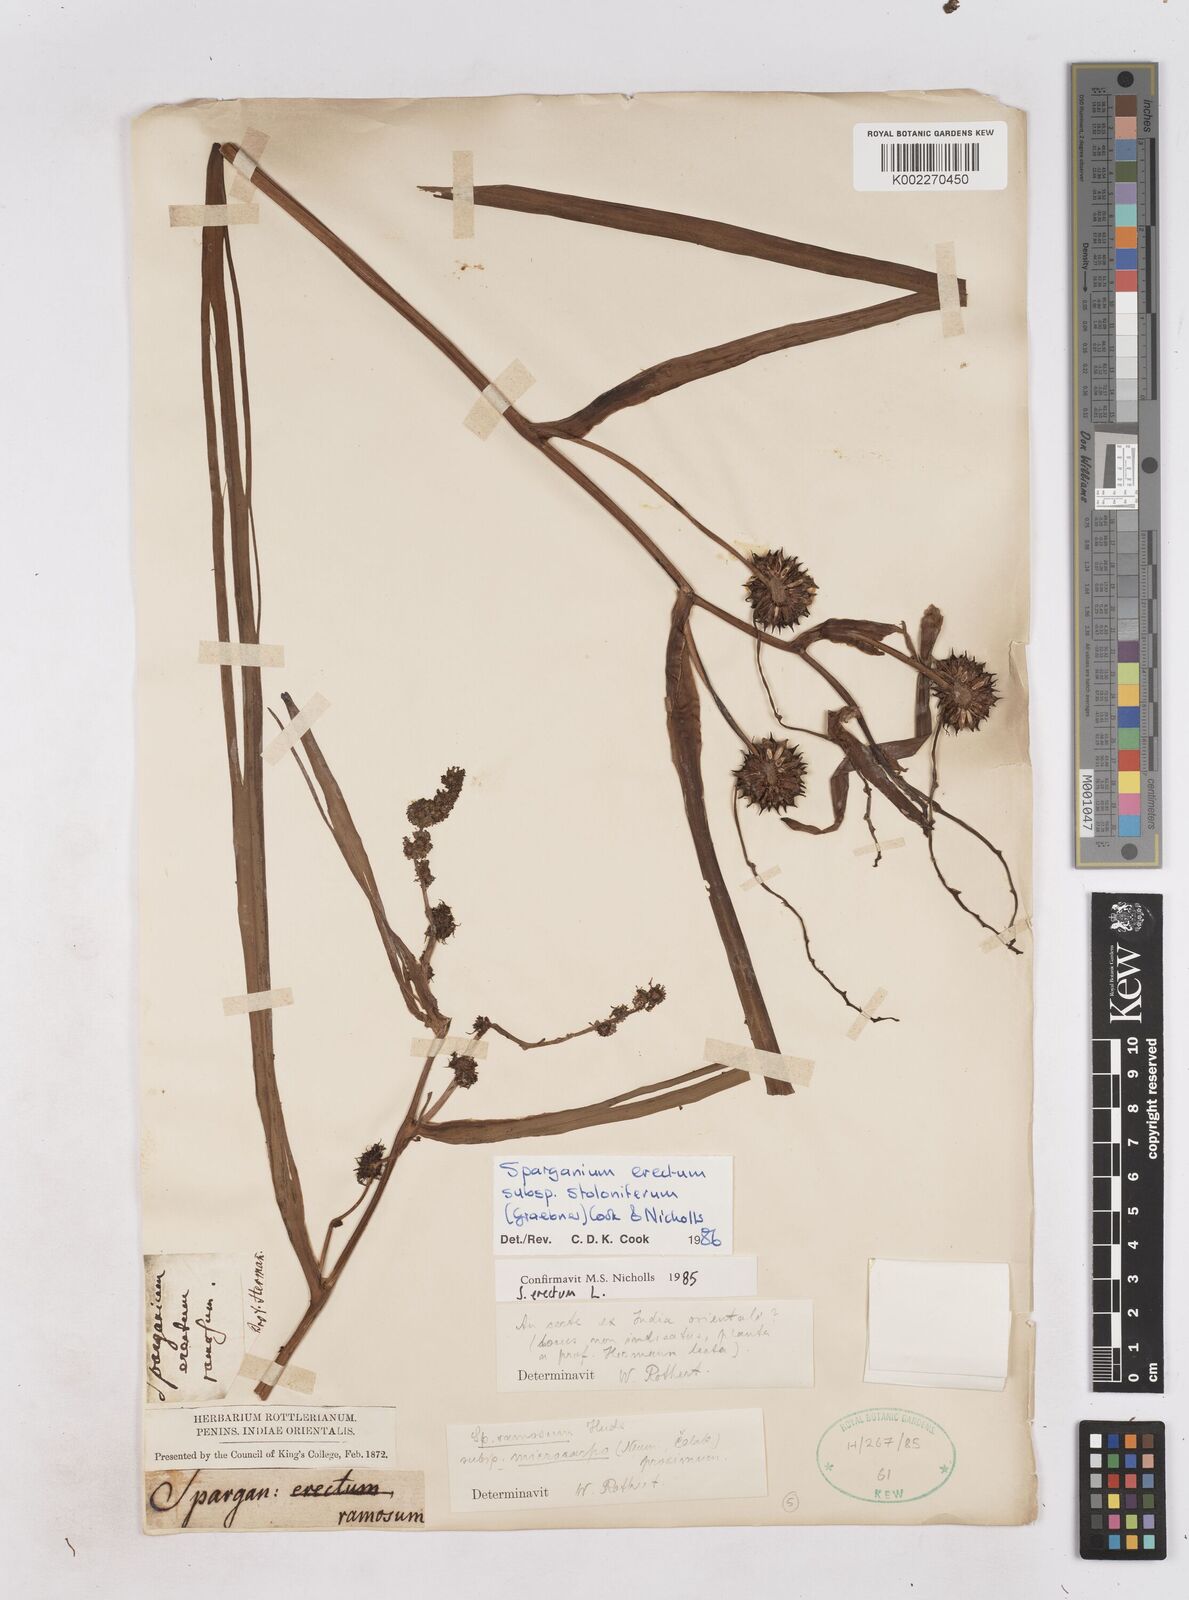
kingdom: Plantae
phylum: Tracheophyta
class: Liliopsida
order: Poales
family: Typhaceae
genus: Sparganium
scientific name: Sparganium stoloniferum
